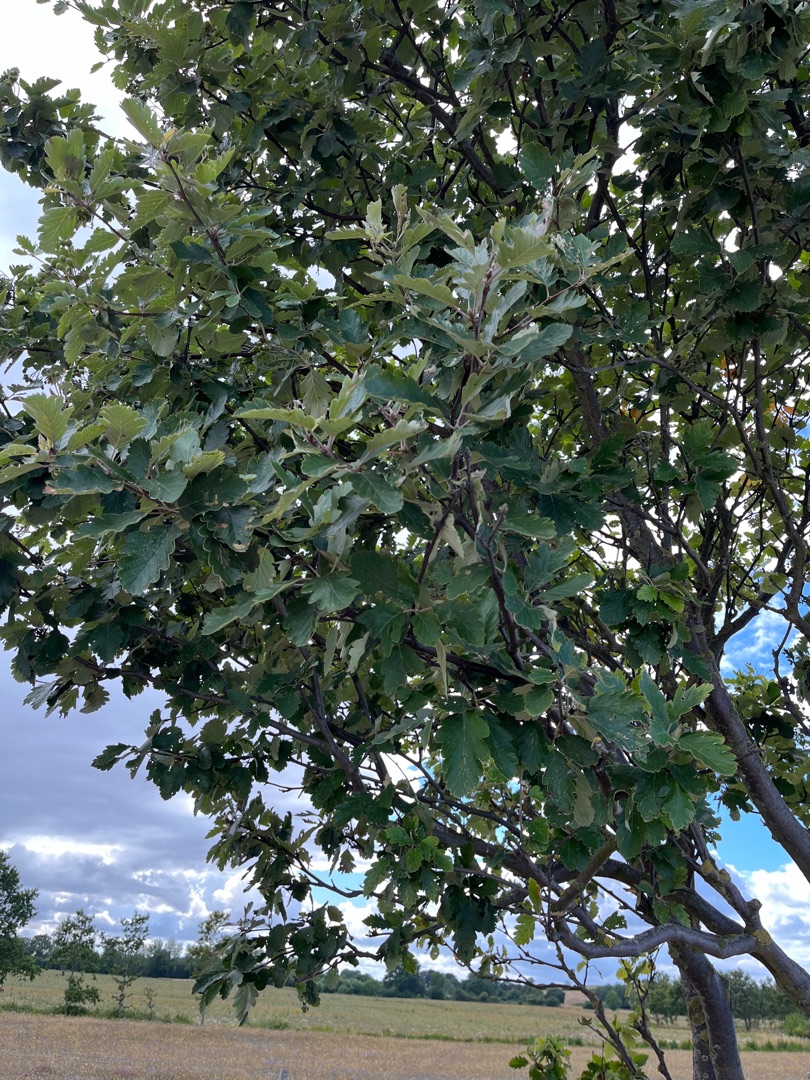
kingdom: Plantae
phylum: Tracheophyta
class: Magnoliopsida
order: Rosales
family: Rosaceae
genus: Scandosorbus
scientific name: Scandosorbus intermedia
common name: Selje-røn
